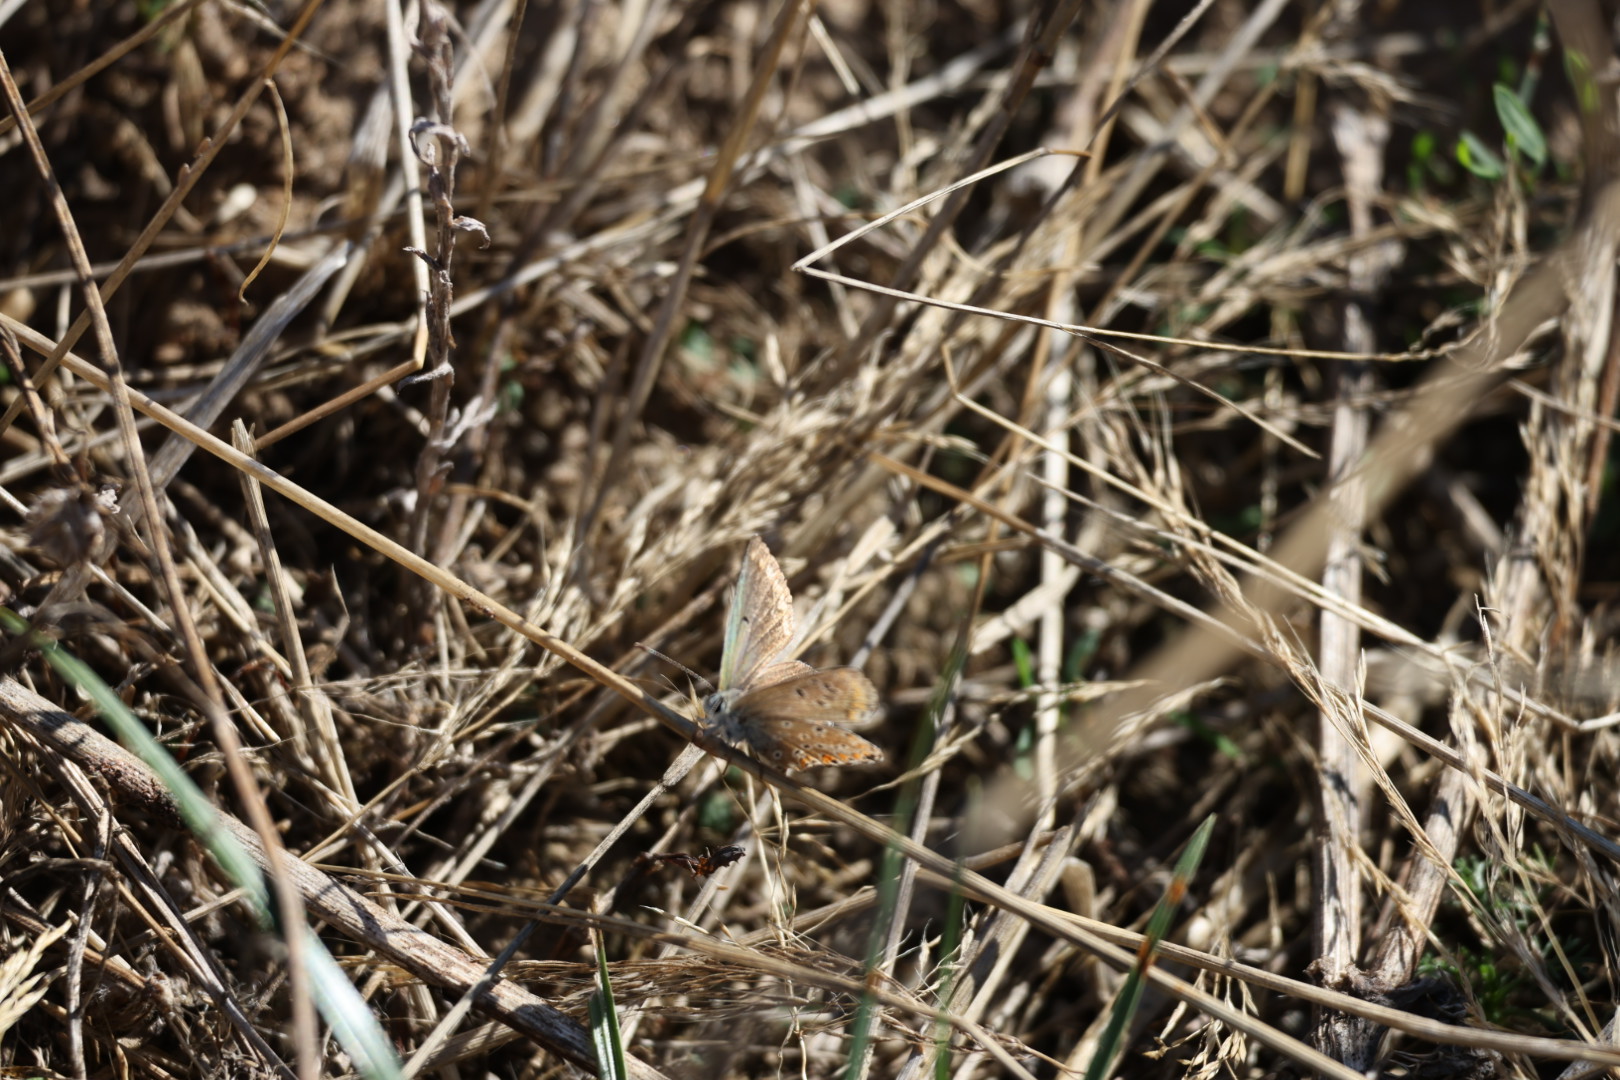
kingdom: Animalia
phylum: Arthropoda
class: Insecta
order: Lepidoptera
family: Lycaenidae
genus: Aricia
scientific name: Aricia agestis
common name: Rødplettet blåfugl
